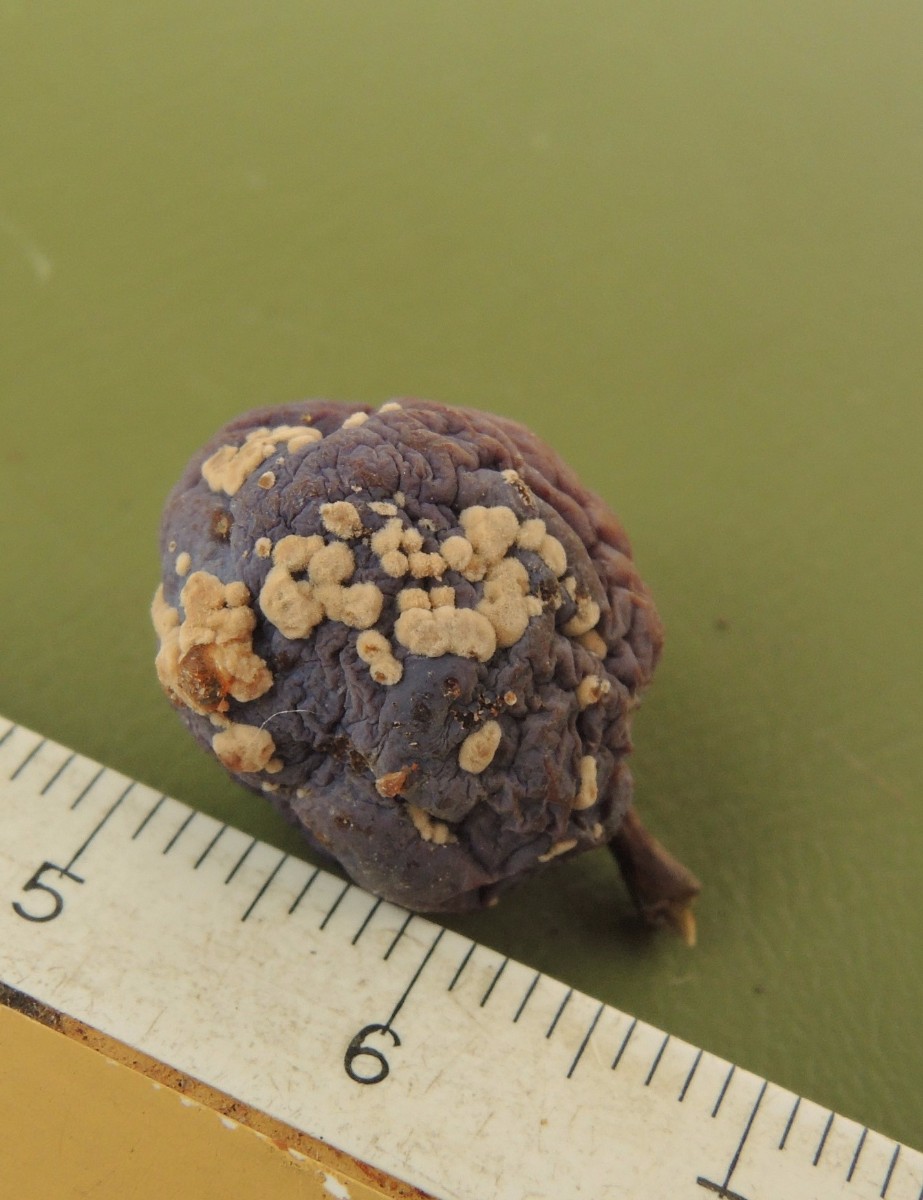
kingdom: Fungi
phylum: Ascomycota
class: Leotiomycetes
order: Helotiales
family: Sclerotiniaceae
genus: Monilinia
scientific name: Monilinia laxa
